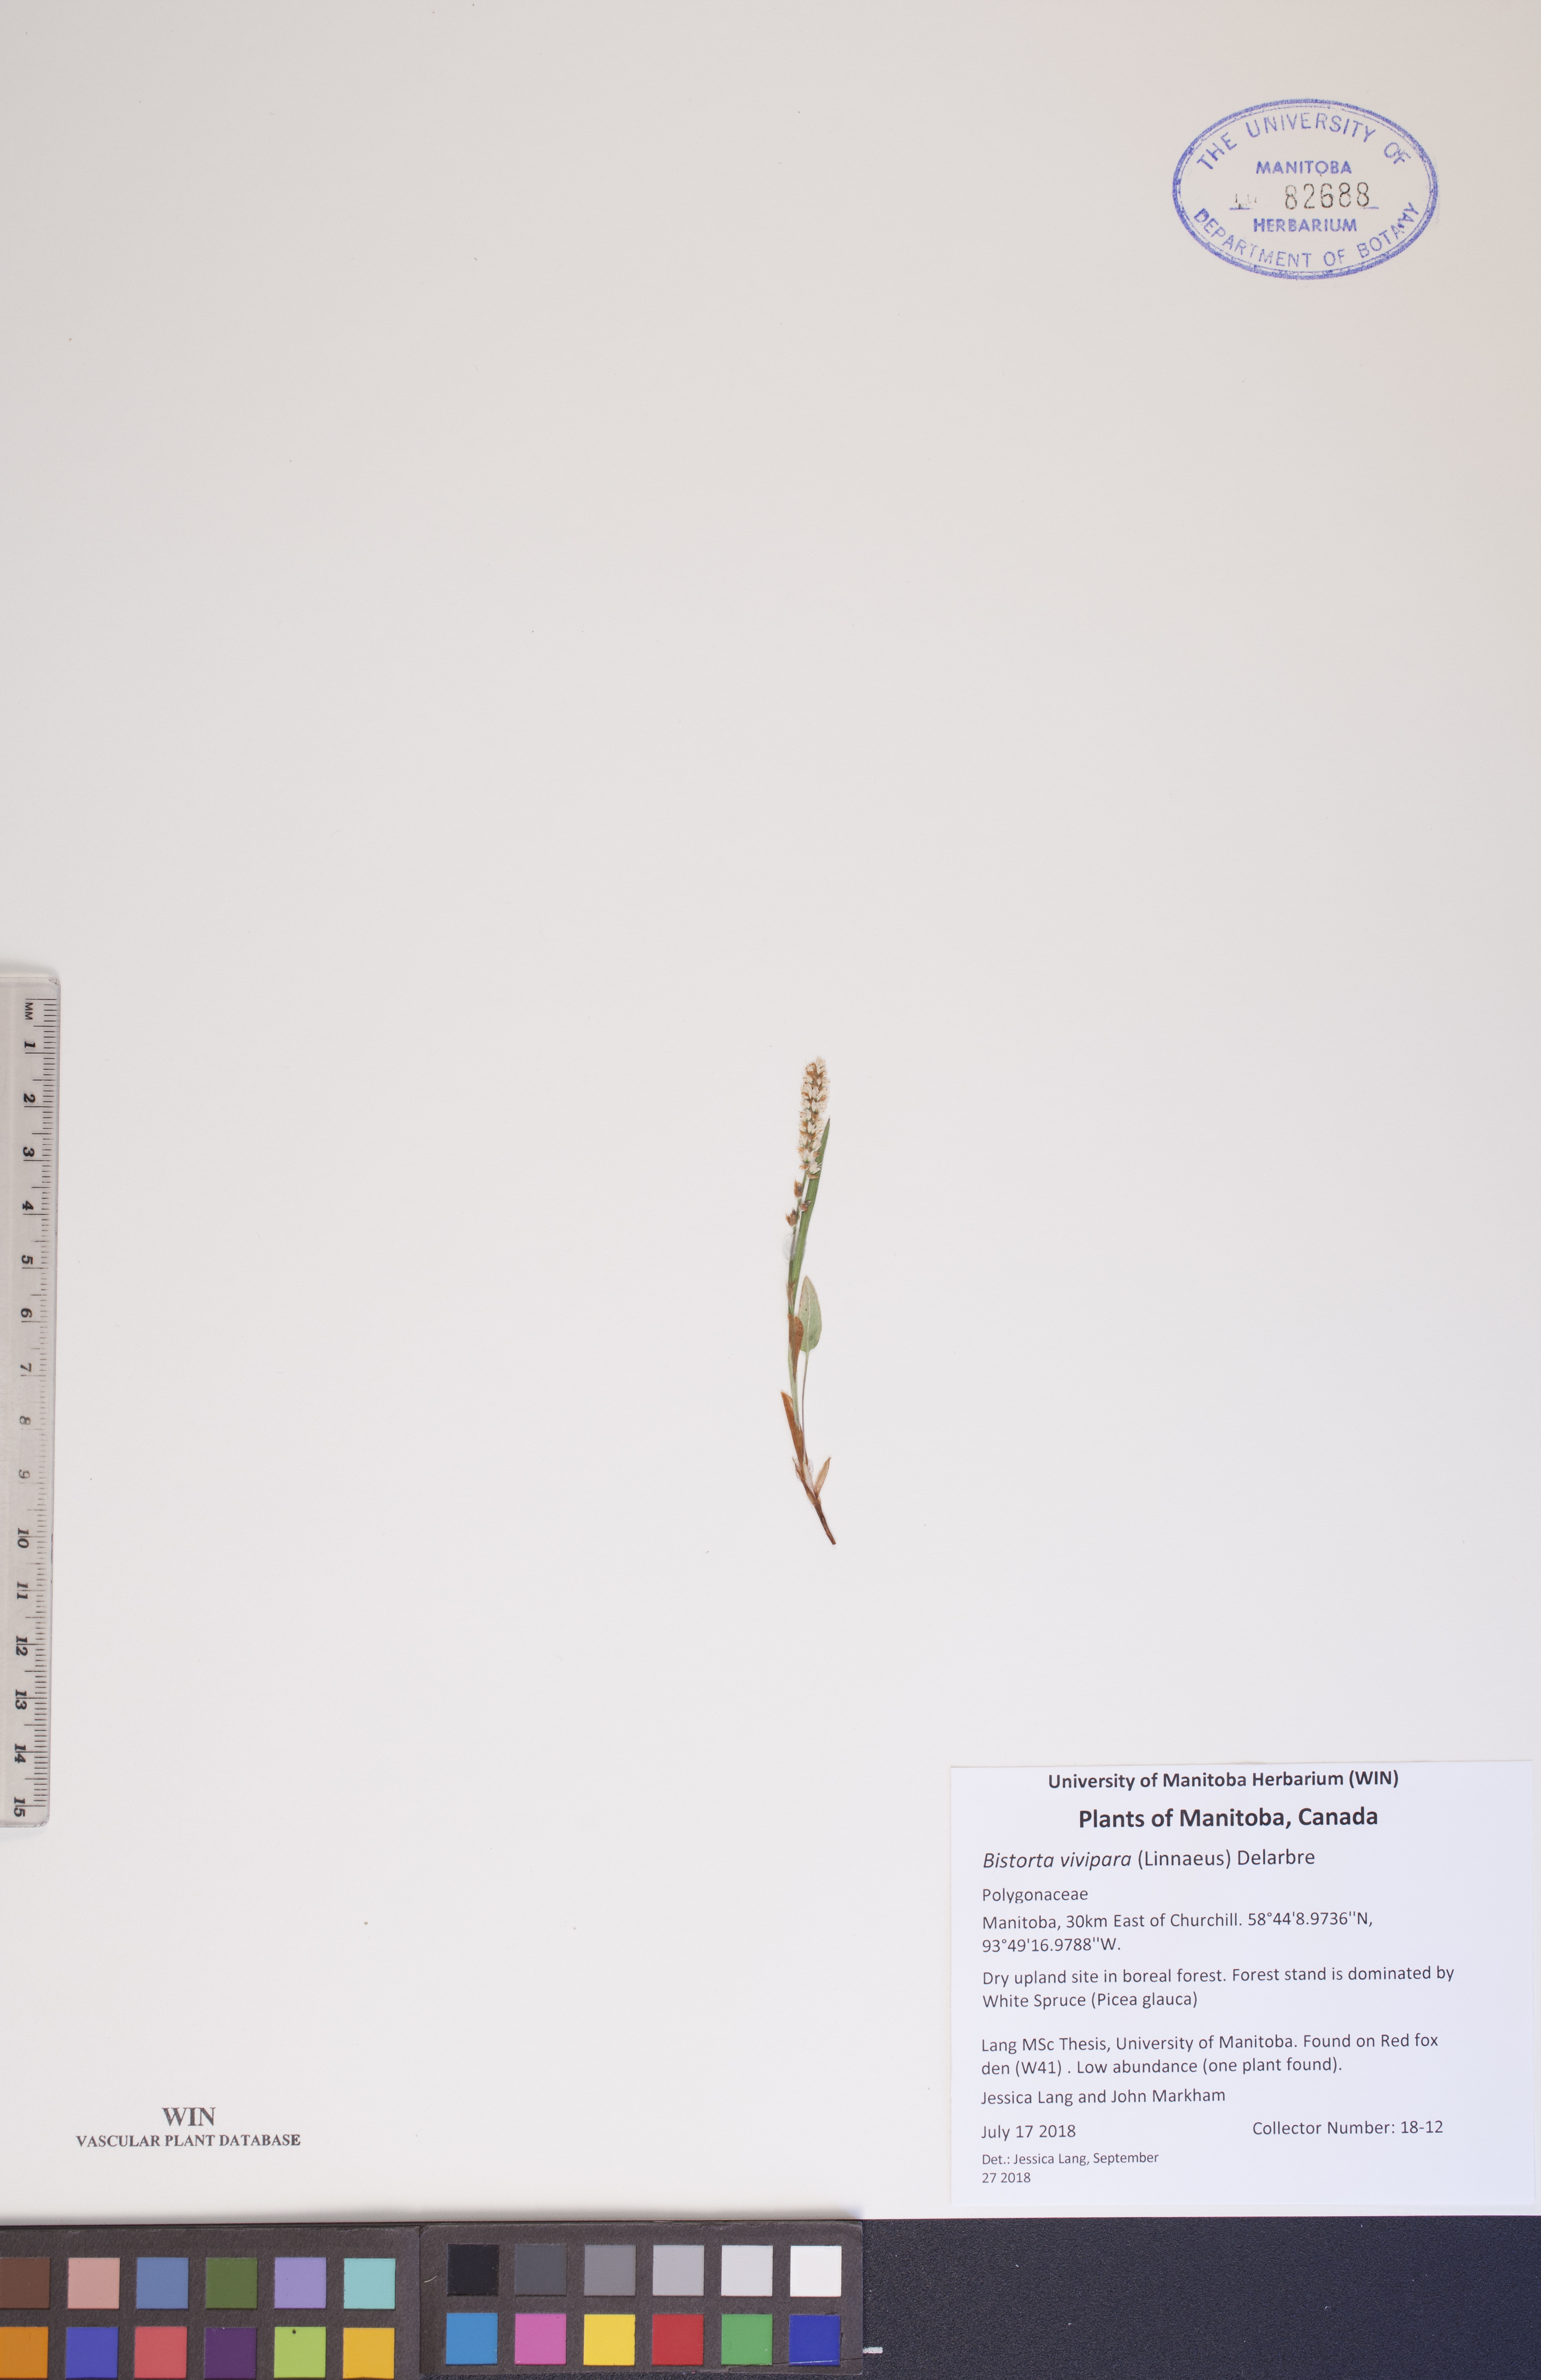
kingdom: Plantae
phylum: Tracheophyta
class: Magnoliopsida
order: Caryophyllales
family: Polygonaceae
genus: Bistorta
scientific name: Bistorta vivipara
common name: Alpine bistort
